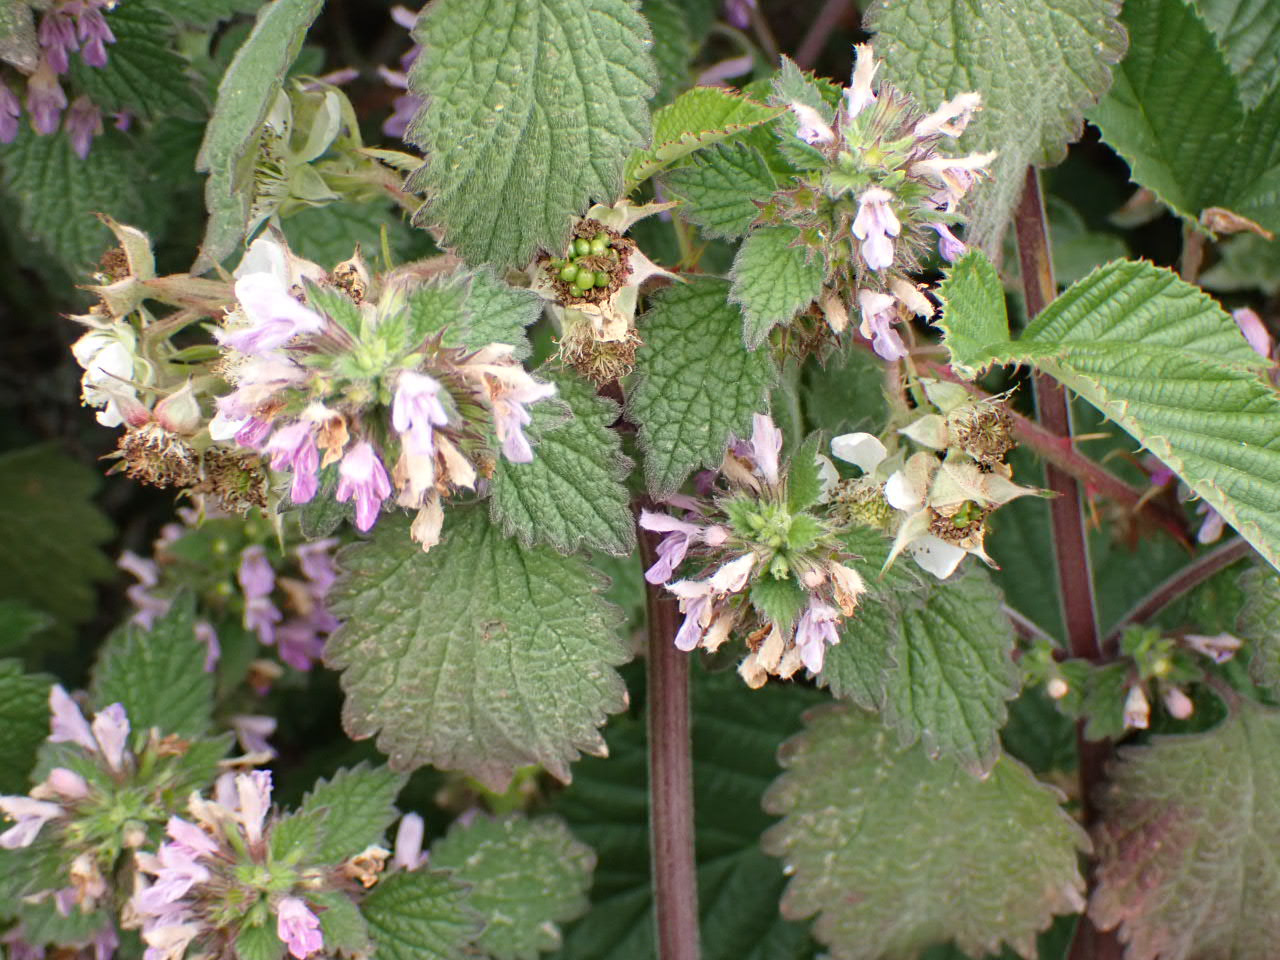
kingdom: Plantae
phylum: Tracheophyta
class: Magnoliopsida
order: Lamiales
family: Lamiaceae
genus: Ballota
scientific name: Ballota nigra
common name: Rød tandbæger
